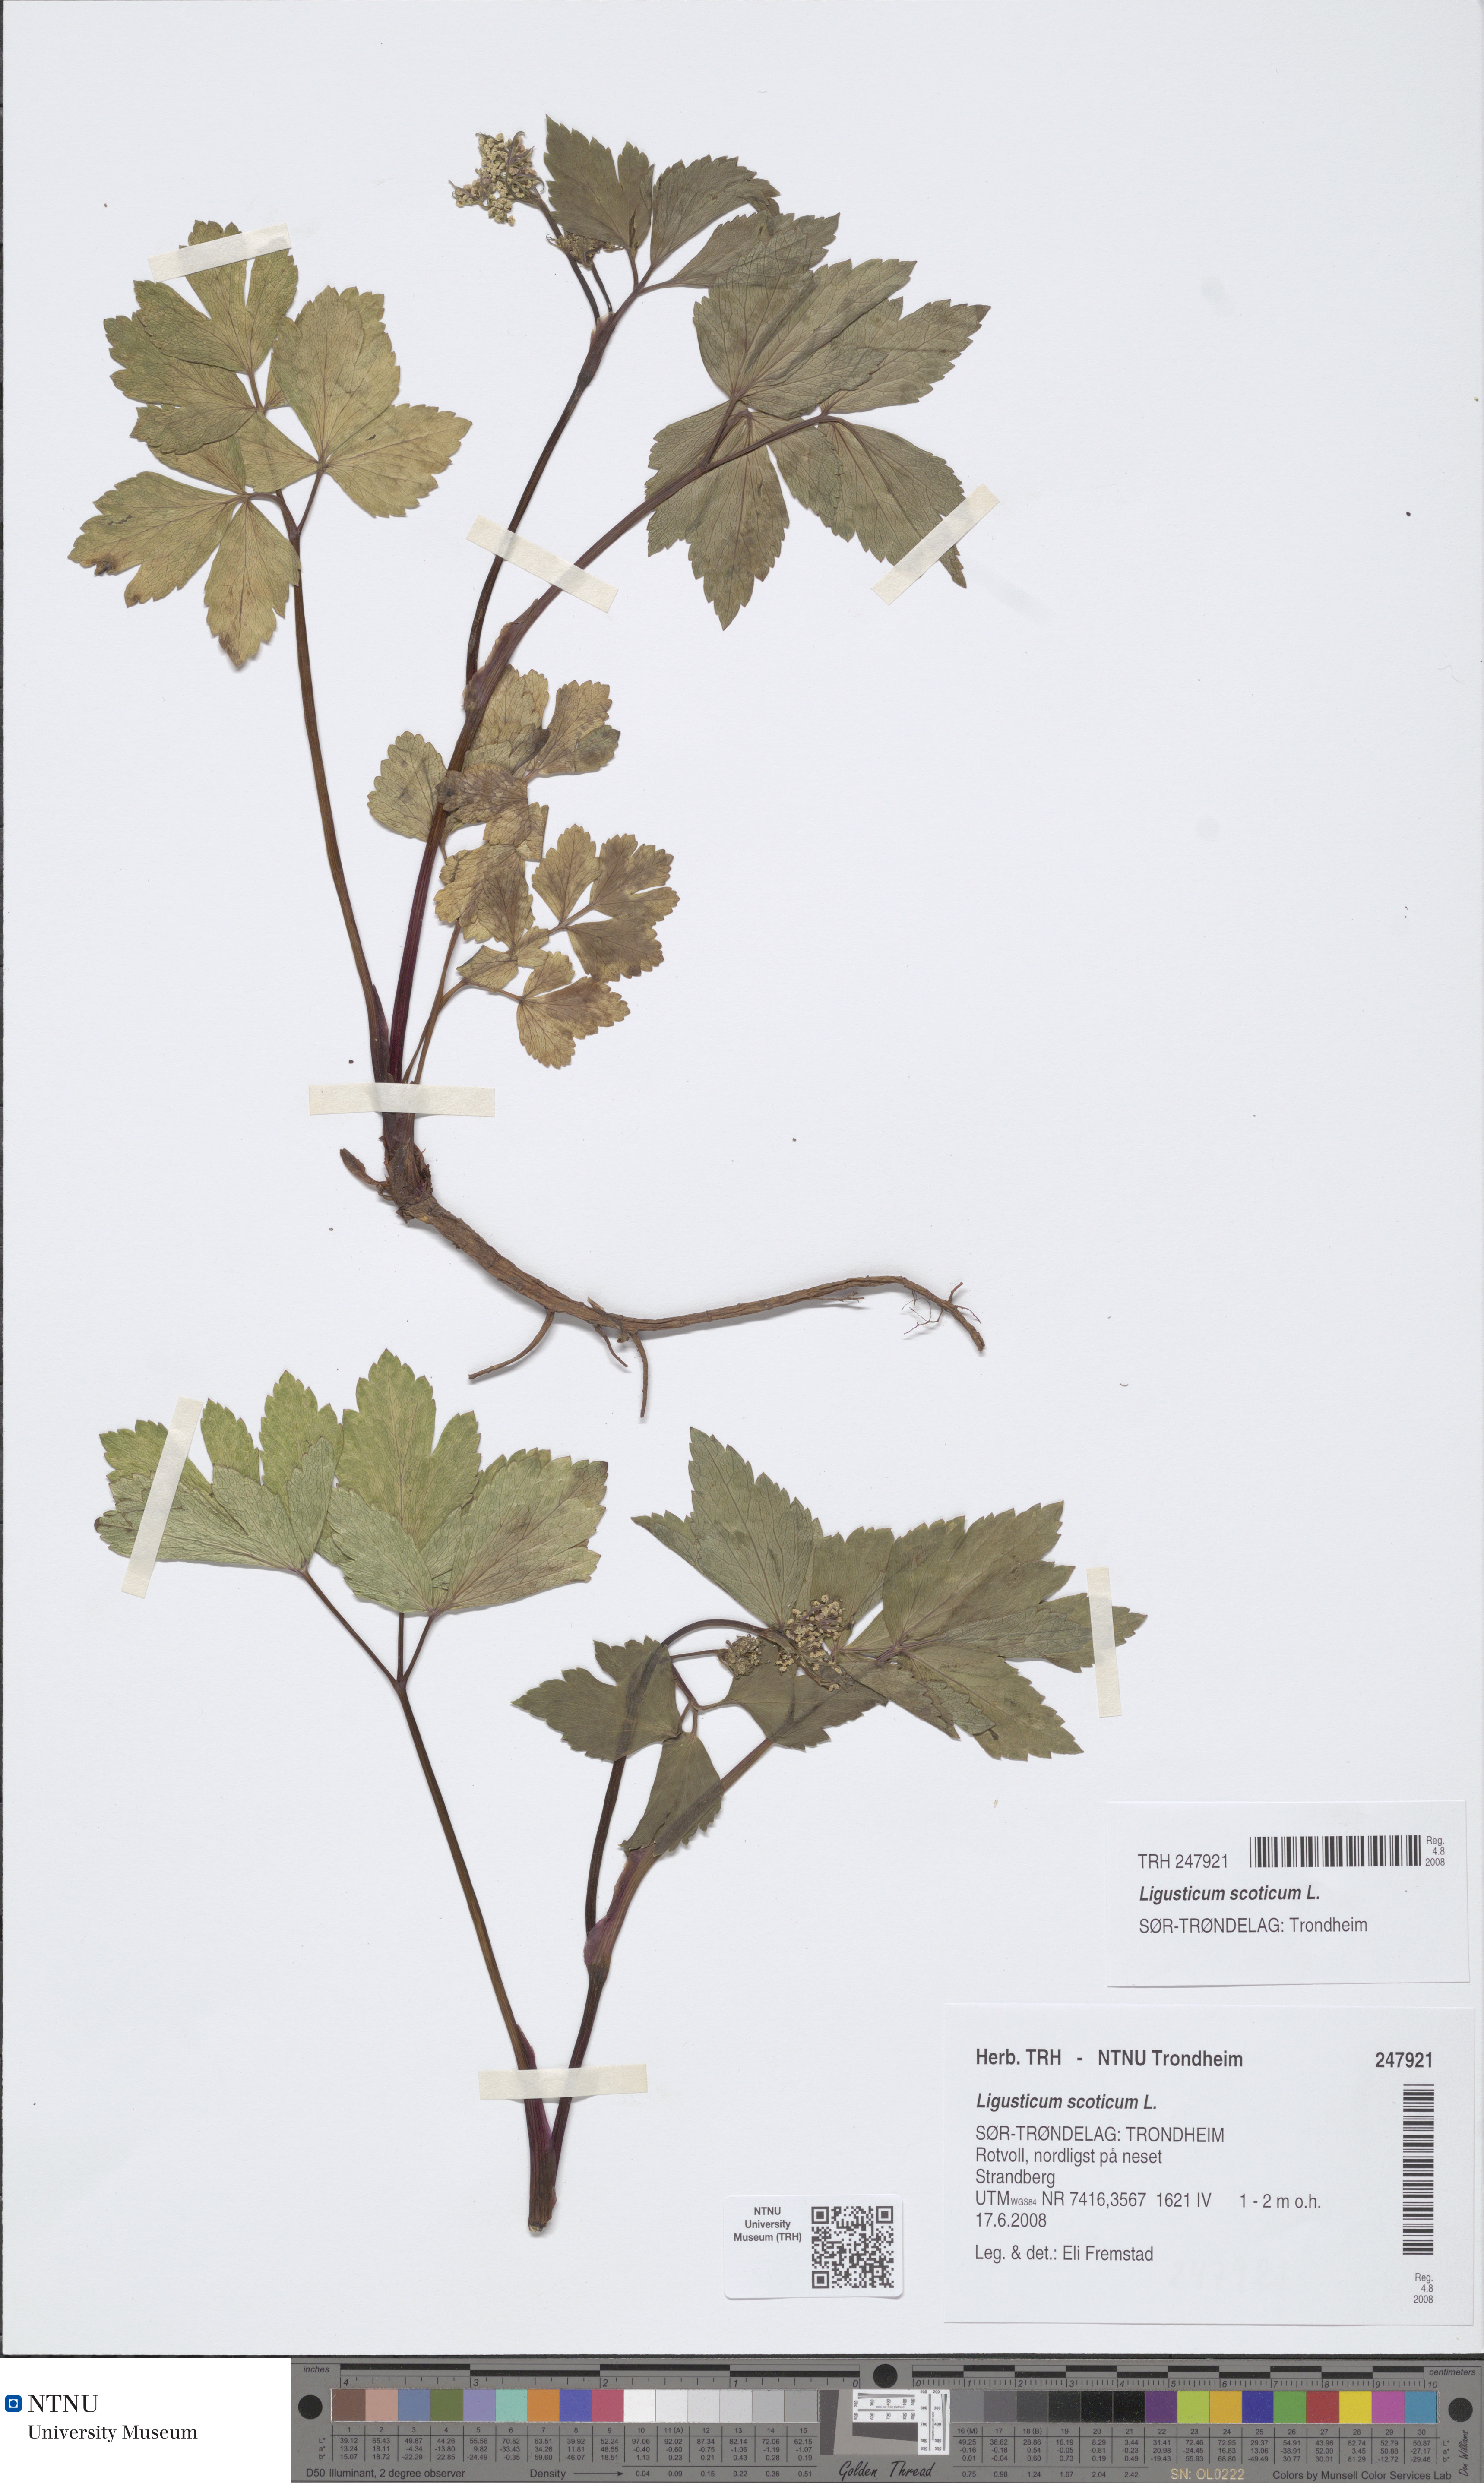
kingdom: Plantae
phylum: Tracheophyta
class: Magnoliopsida
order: Apiales
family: Apiaceae
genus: Ligusticum
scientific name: Ligusticum scothicum
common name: Beach lovage
